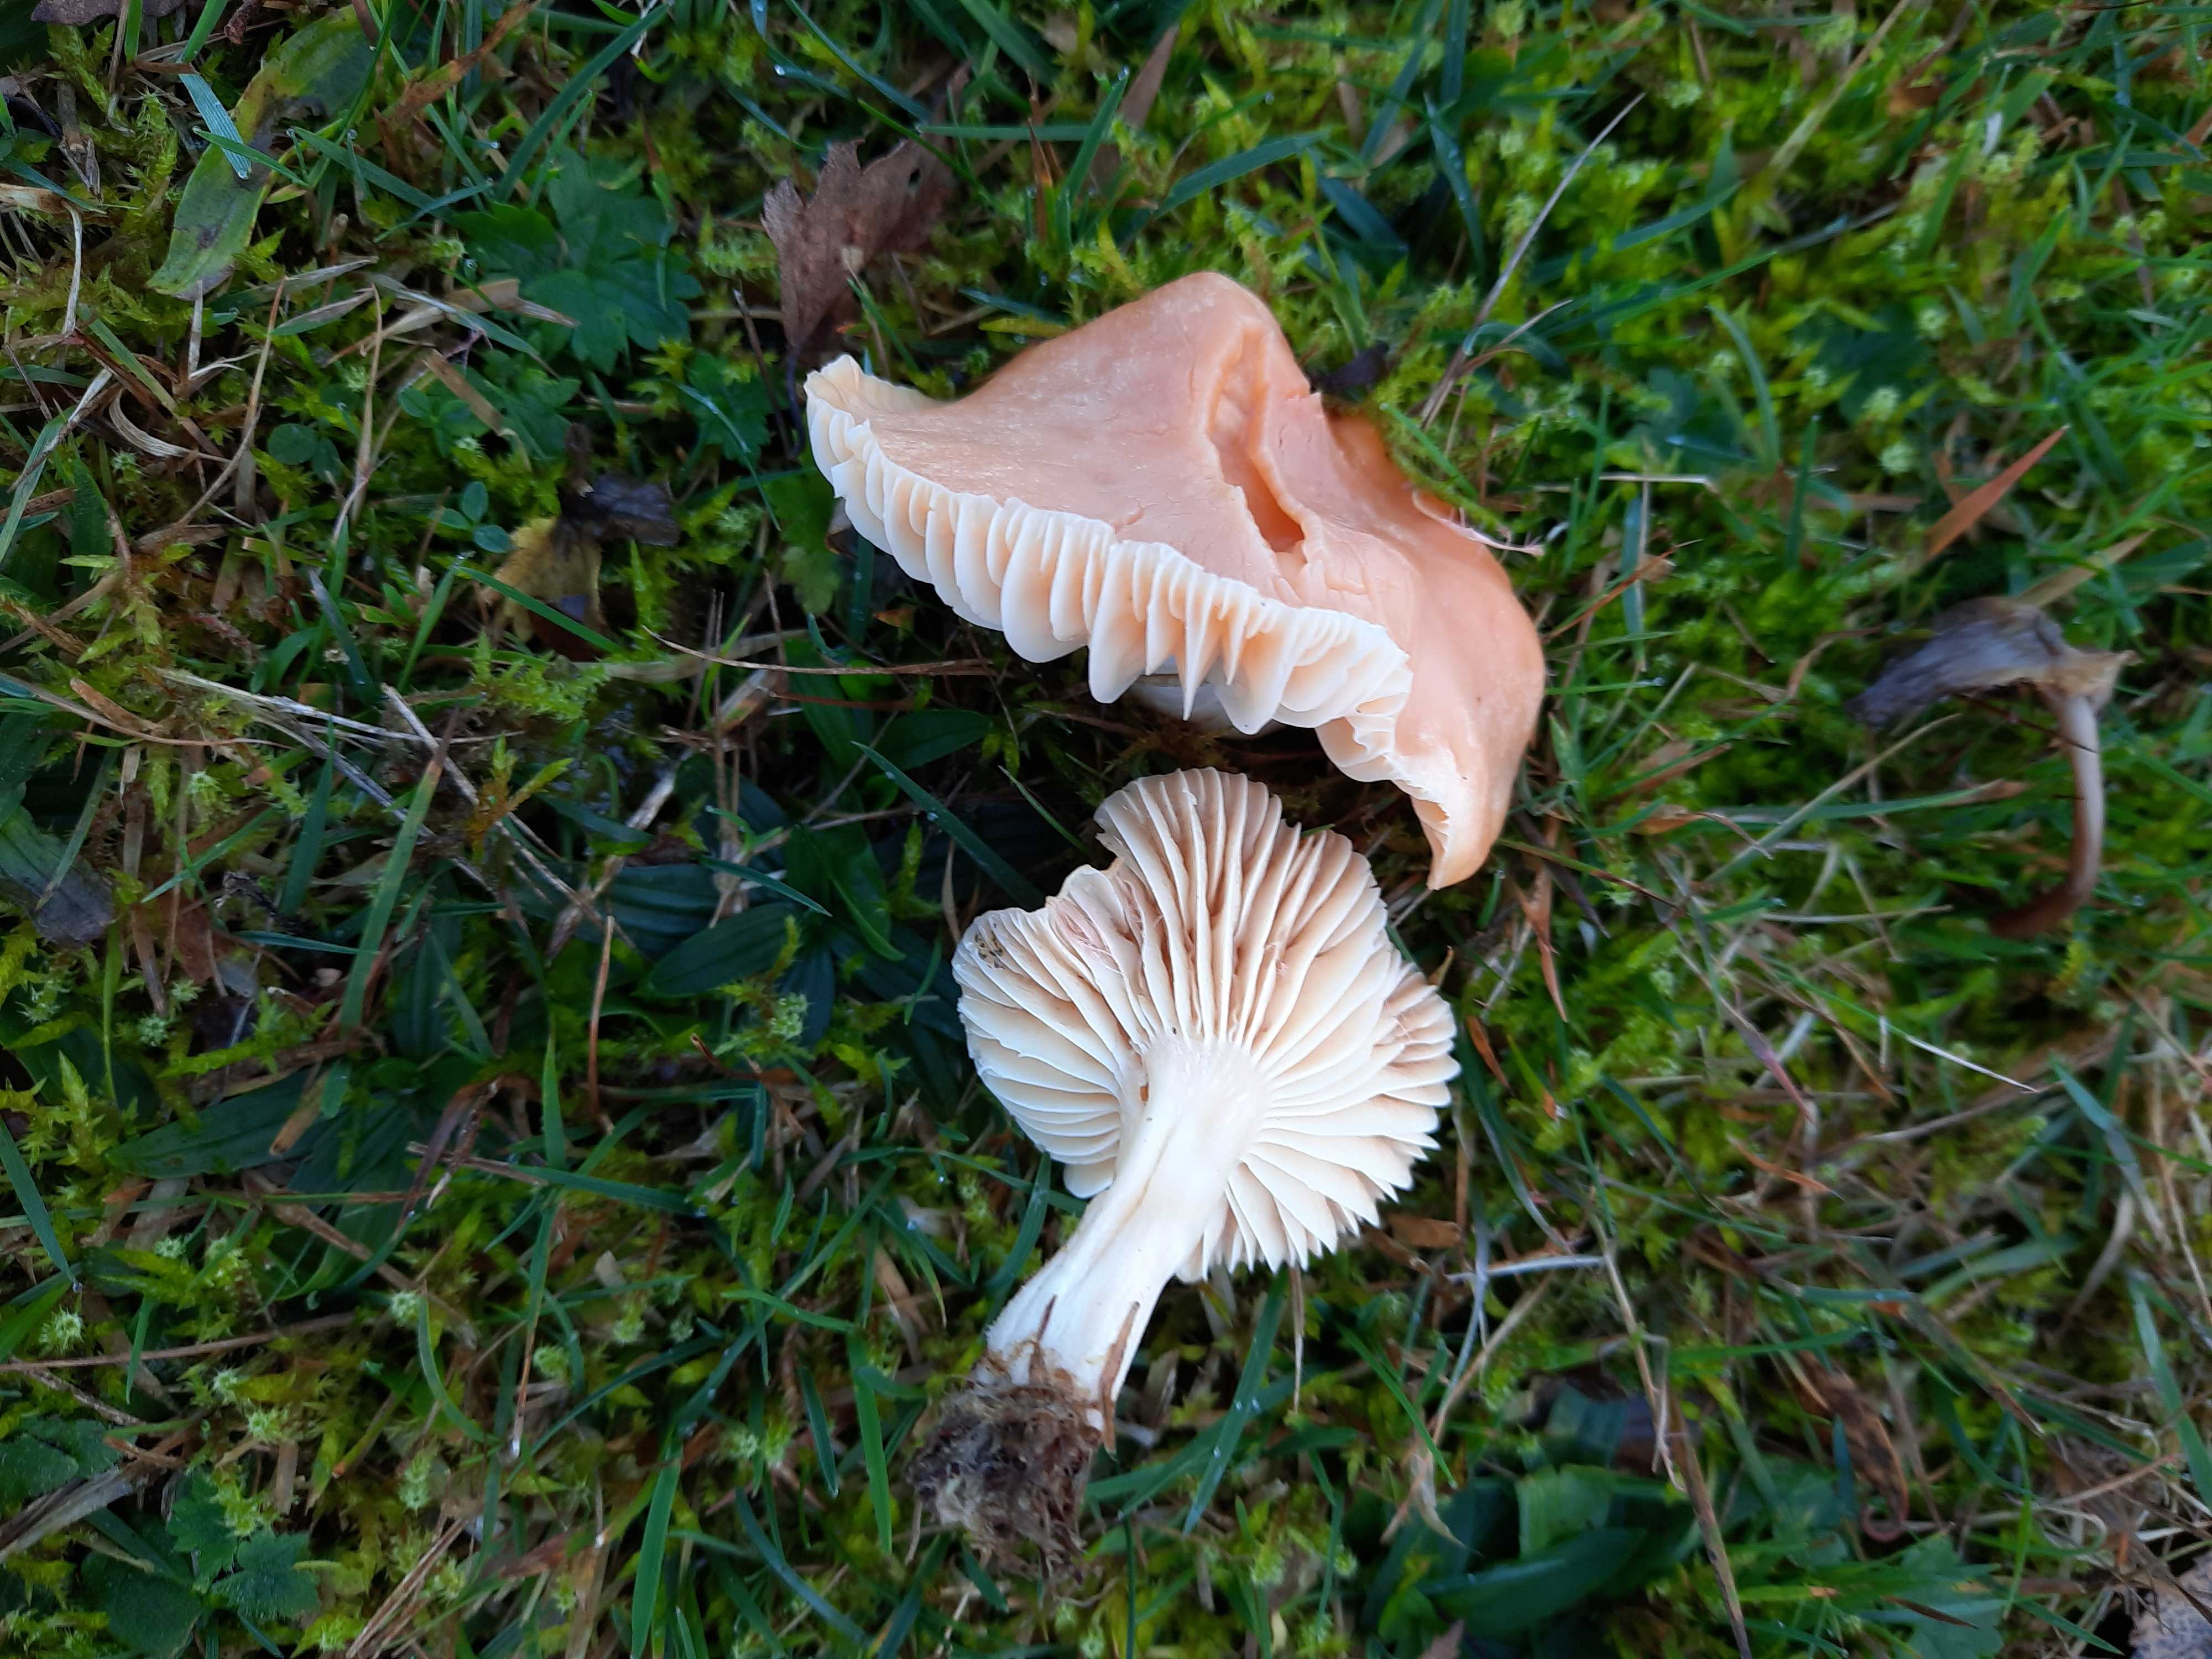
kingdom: Fungi
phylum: Basidiomycota
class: Agaricomycetes
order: Agaricales
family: Hygrophoraceae
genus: Cuphophyllus
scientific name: Cuphophyllus pratensis
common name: eng-vokshat
